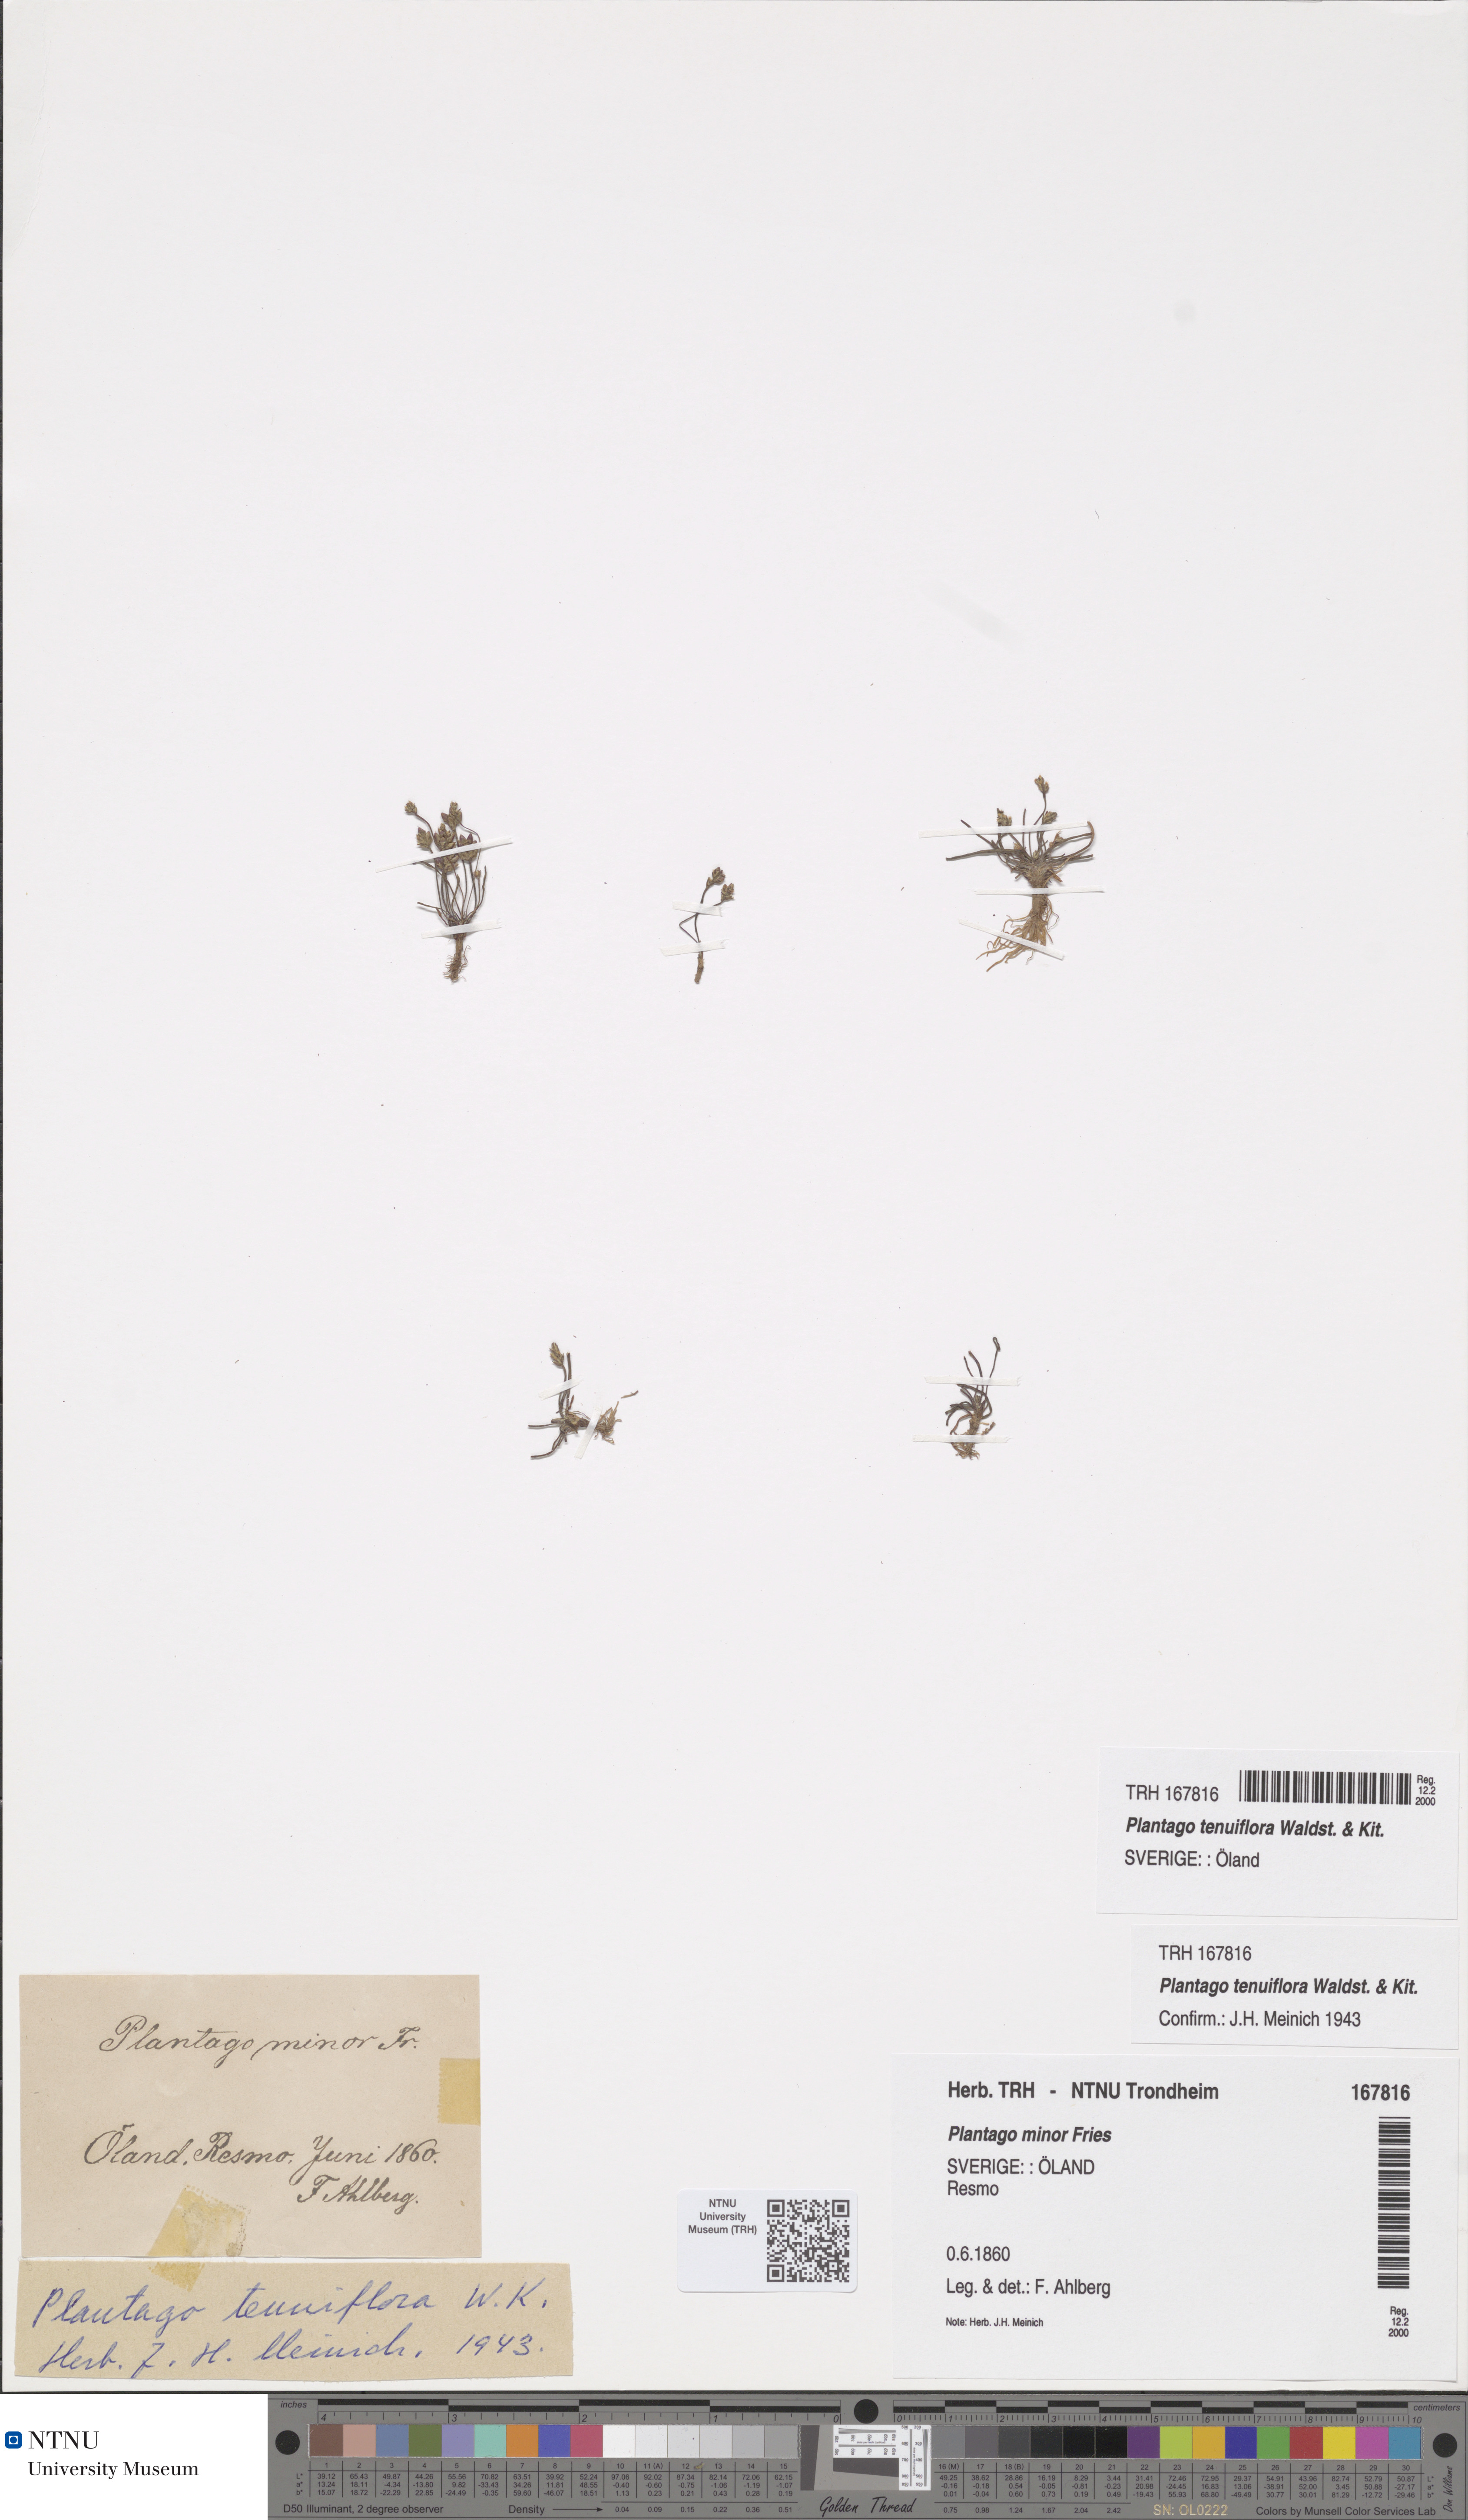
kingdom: Plantae
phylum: Tracheophyta
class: Magnoliopsida
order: Lamiales
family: Plantaginaceae
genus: Plantago
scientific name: Plantago tenuiflora
